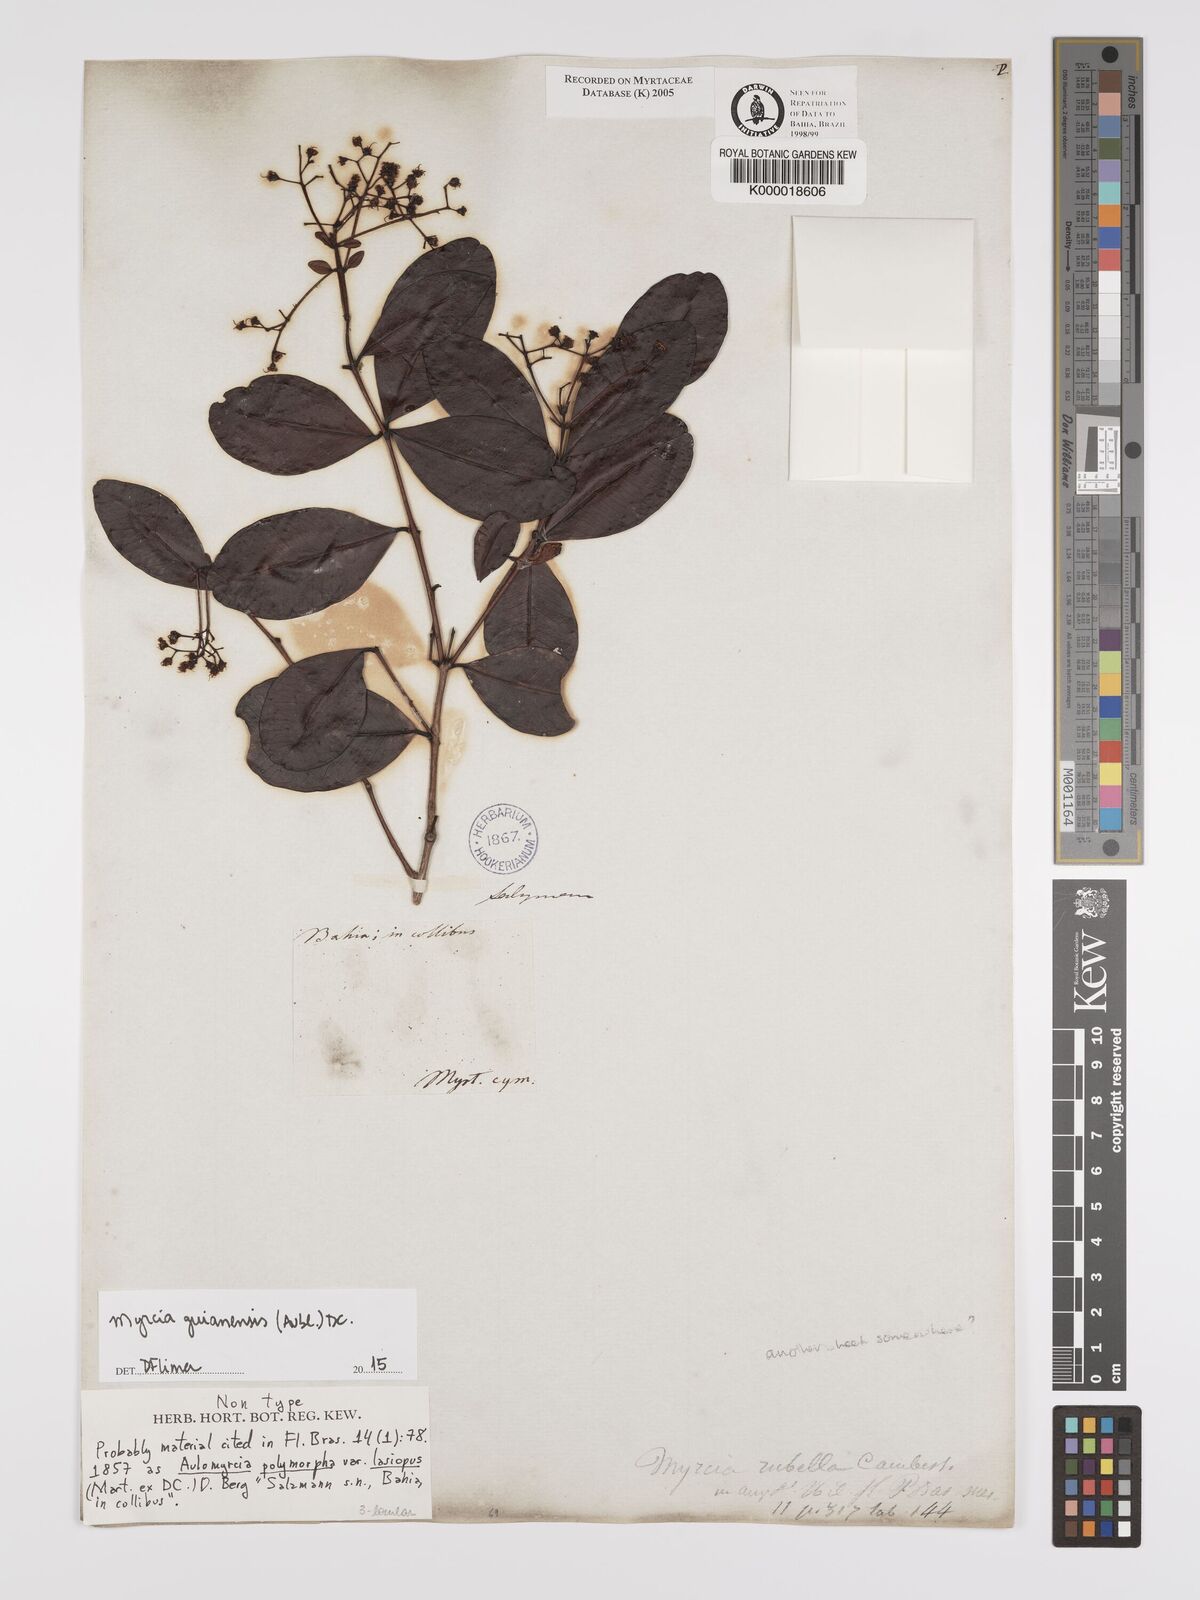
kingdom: Plantae
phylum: Tracheophyta
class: Magnoliopsida
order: Myrtales
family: Myrtaceae
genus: Myrcia
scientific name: Myrcia rubella
